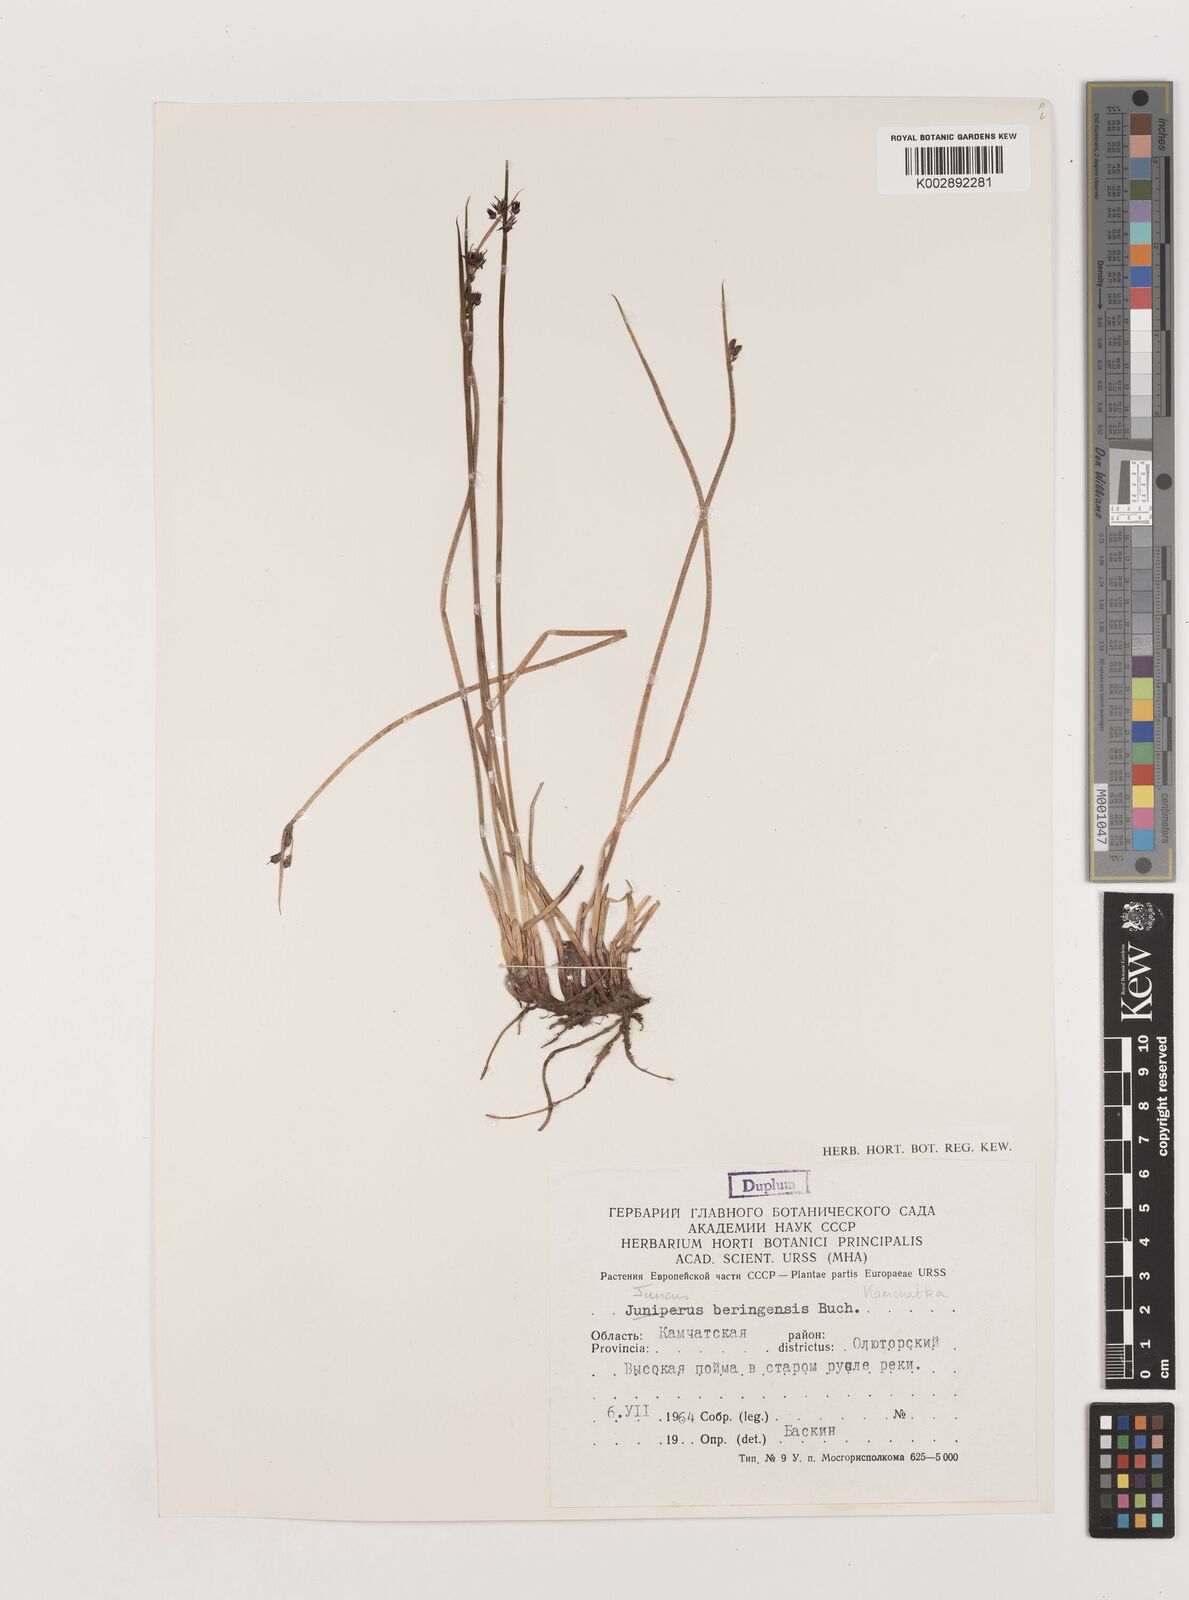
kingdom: Plantae
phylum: Tracheophyta
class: Liliopsida
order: Poales
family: Juncaceae
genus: Juncus
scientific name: Juncus beringensis
